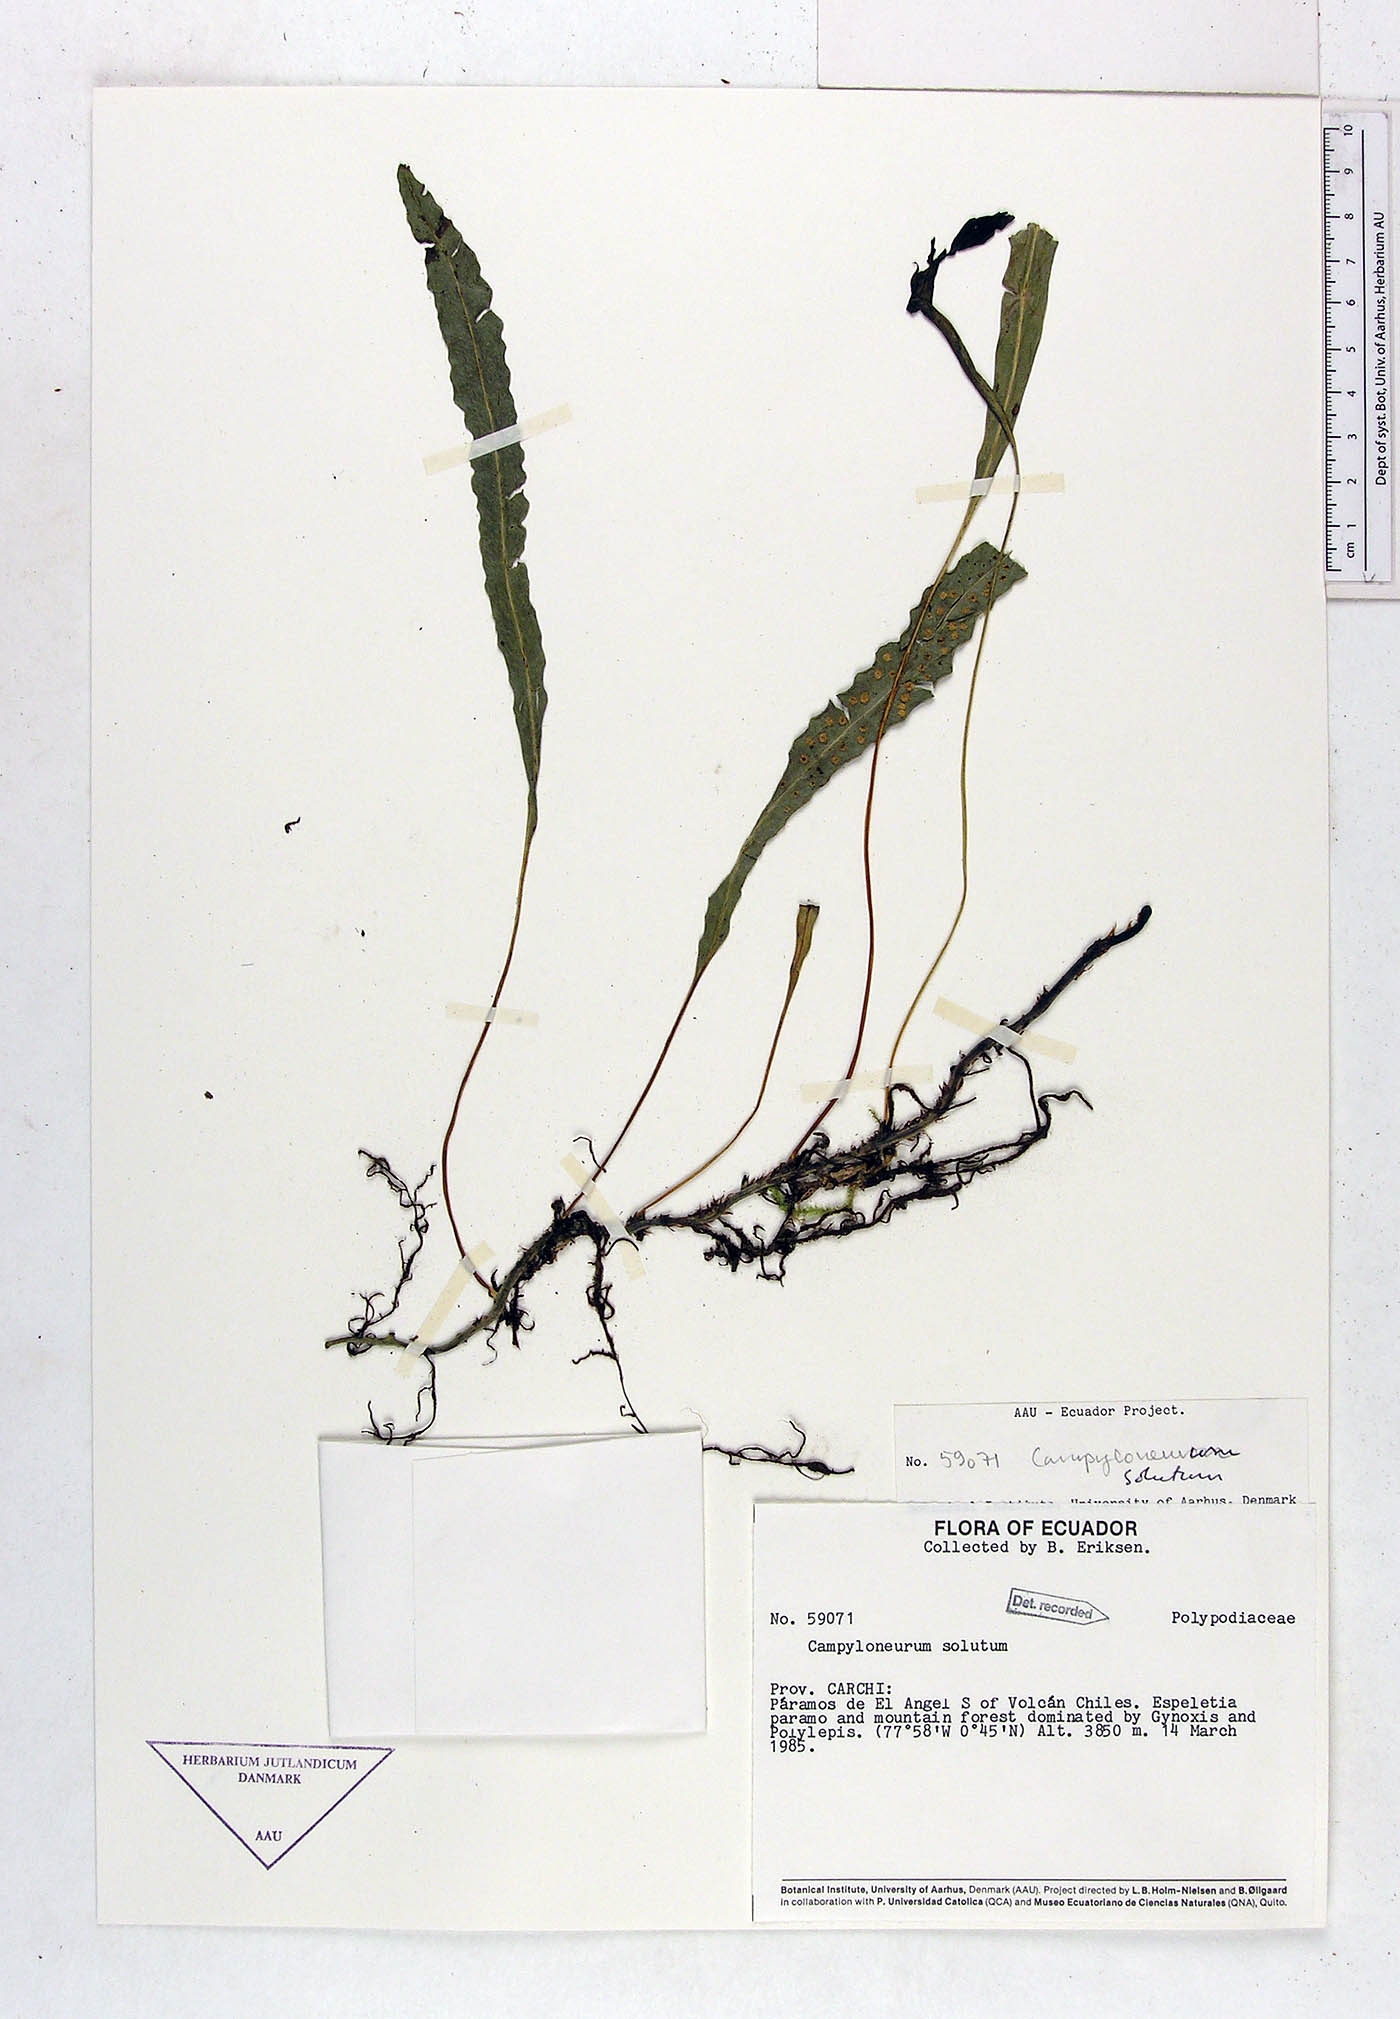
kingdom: Plantae
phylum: Tracheophyta
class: Polypodiopsida
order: Polypodiales
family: Polypodiaceae
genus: Campyloneurum
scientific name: Campyloneurum solutum
